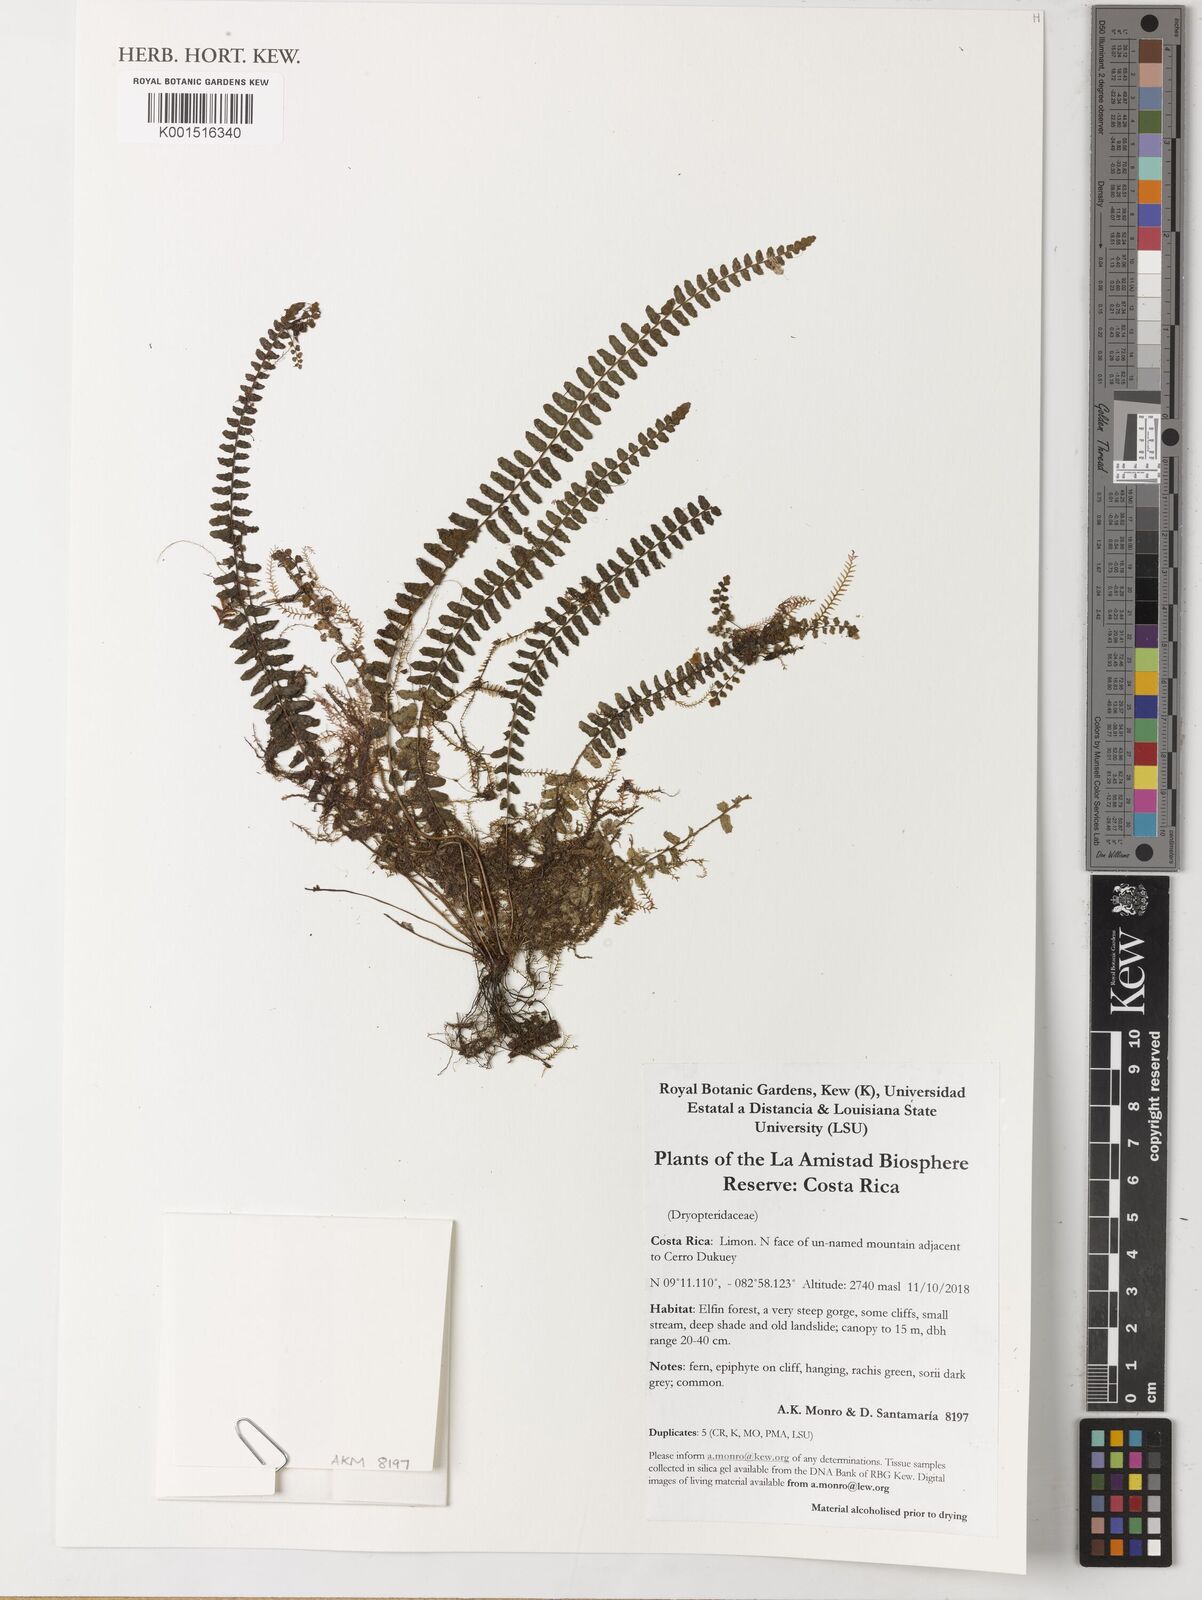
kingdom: Plantae
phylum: Tracheophyta
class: Polypodiopsida
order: Polypodiales
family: Dryopteridaceae
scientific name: Dryopteridaceae
